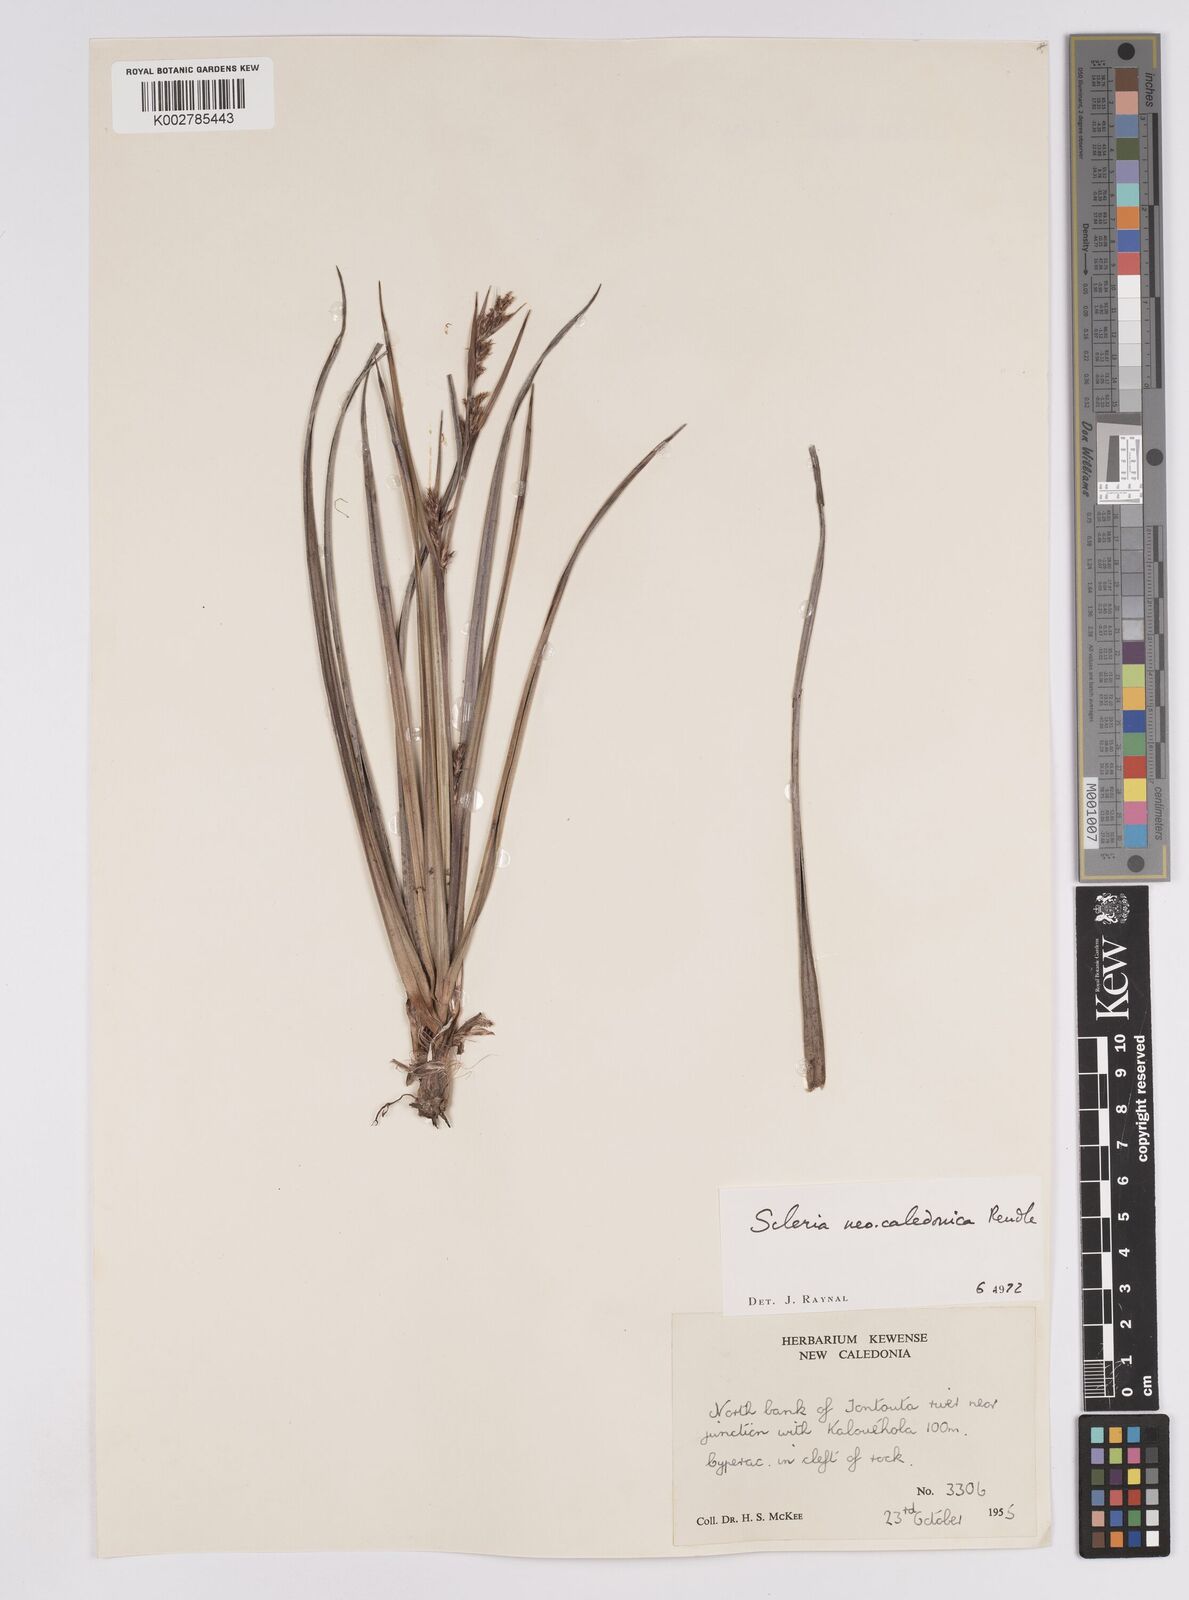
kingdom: Plantae
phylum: Tracheophyta
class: Liliopsida
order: Poales
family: Cyperaceae
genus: Scleria
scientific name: Scleria neocaledonica
